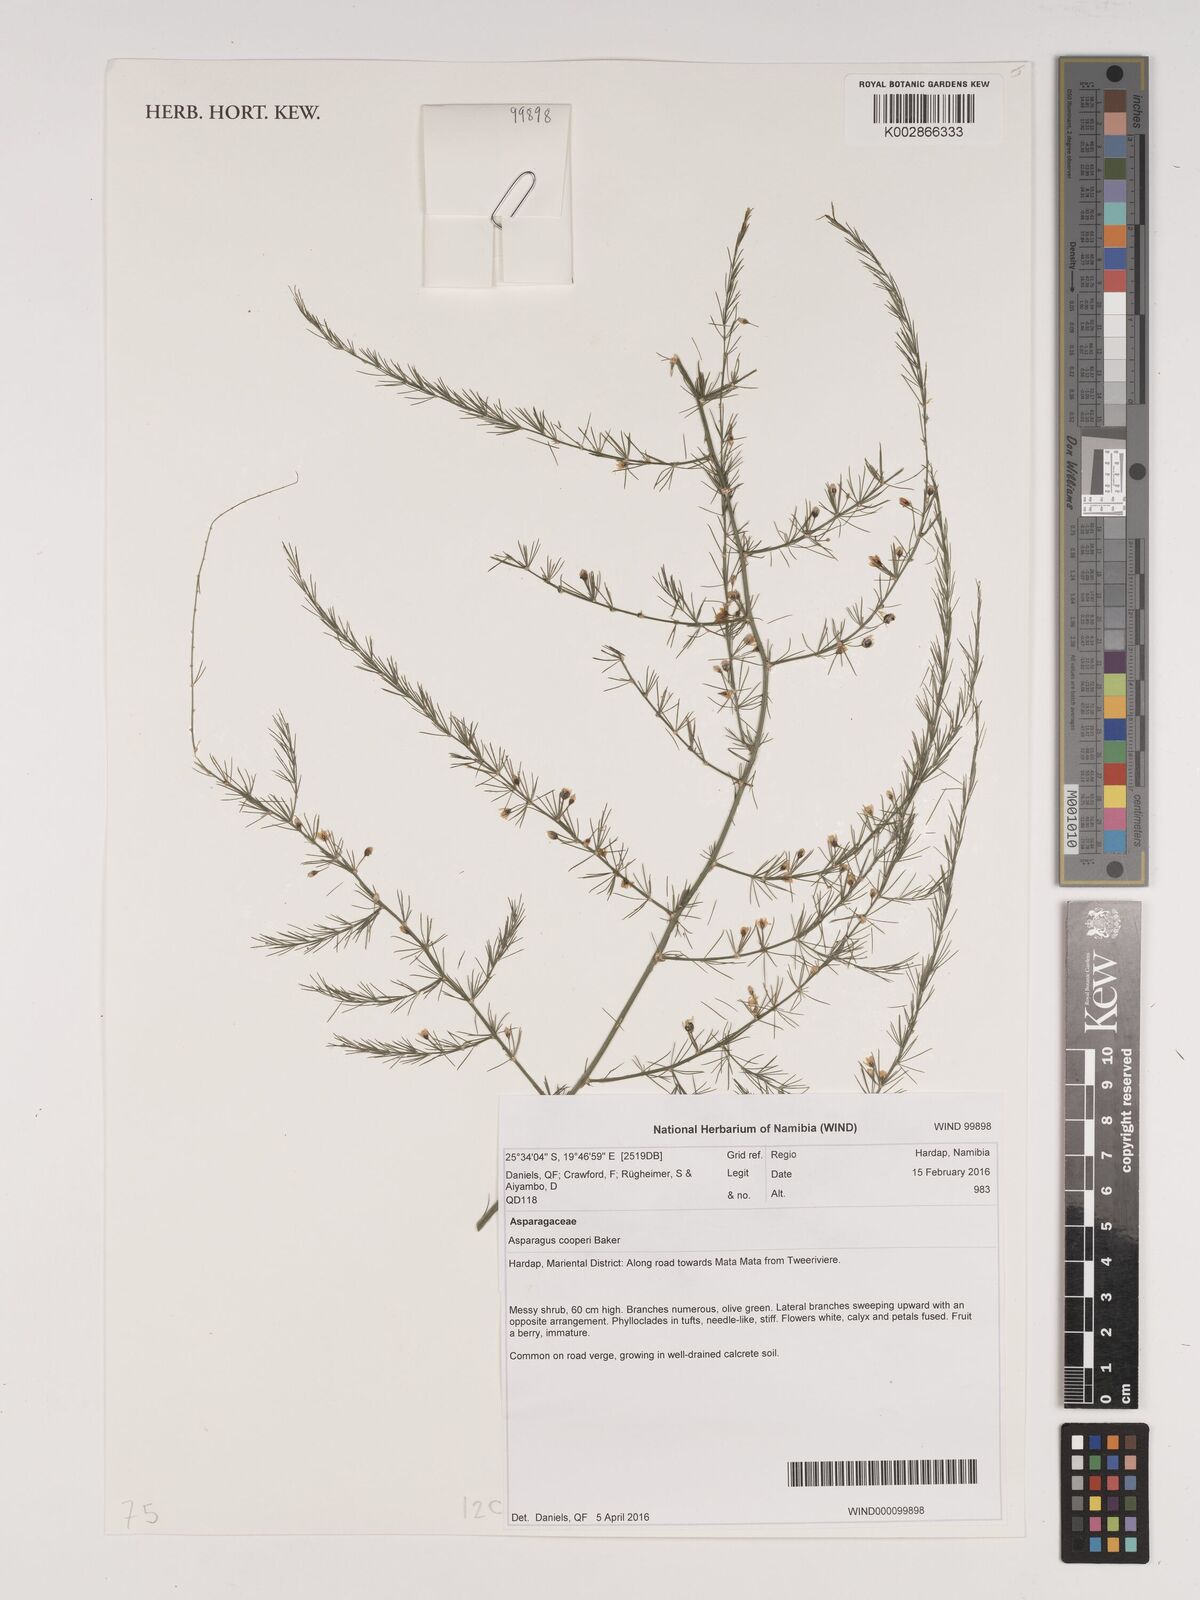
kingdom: Plantae
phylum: Tracheophyta
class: Liliopsida
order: Asparagales
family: Asparagaceae
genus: Asparagus
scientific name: Asparagus africanus
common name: Asparagus-fern
